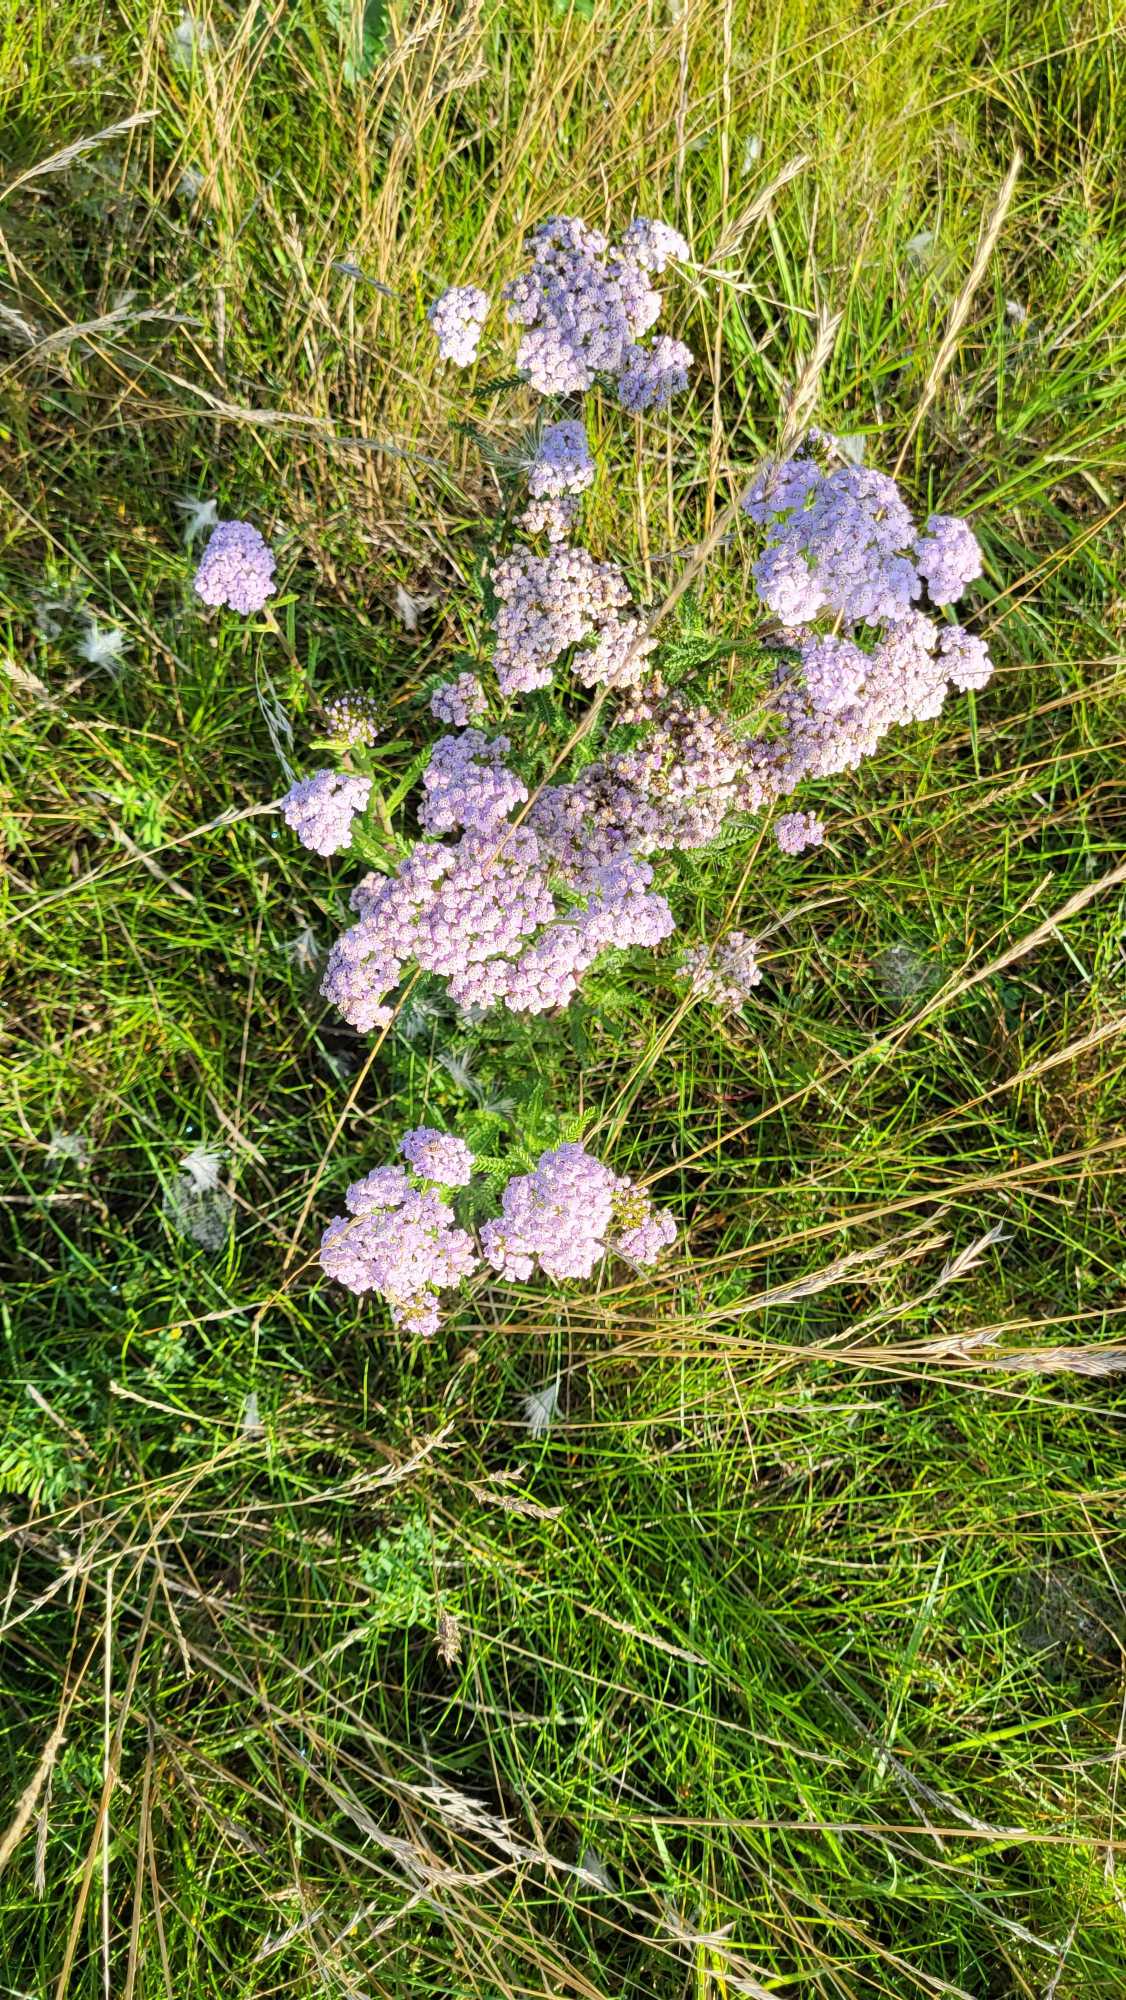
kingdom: Plantae
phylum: Tracheophyta
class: Magnoliopsida
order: Asterales
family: Asteraceae
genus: Achillea
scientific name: Achillea millefolium
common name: Almindelig røllike
